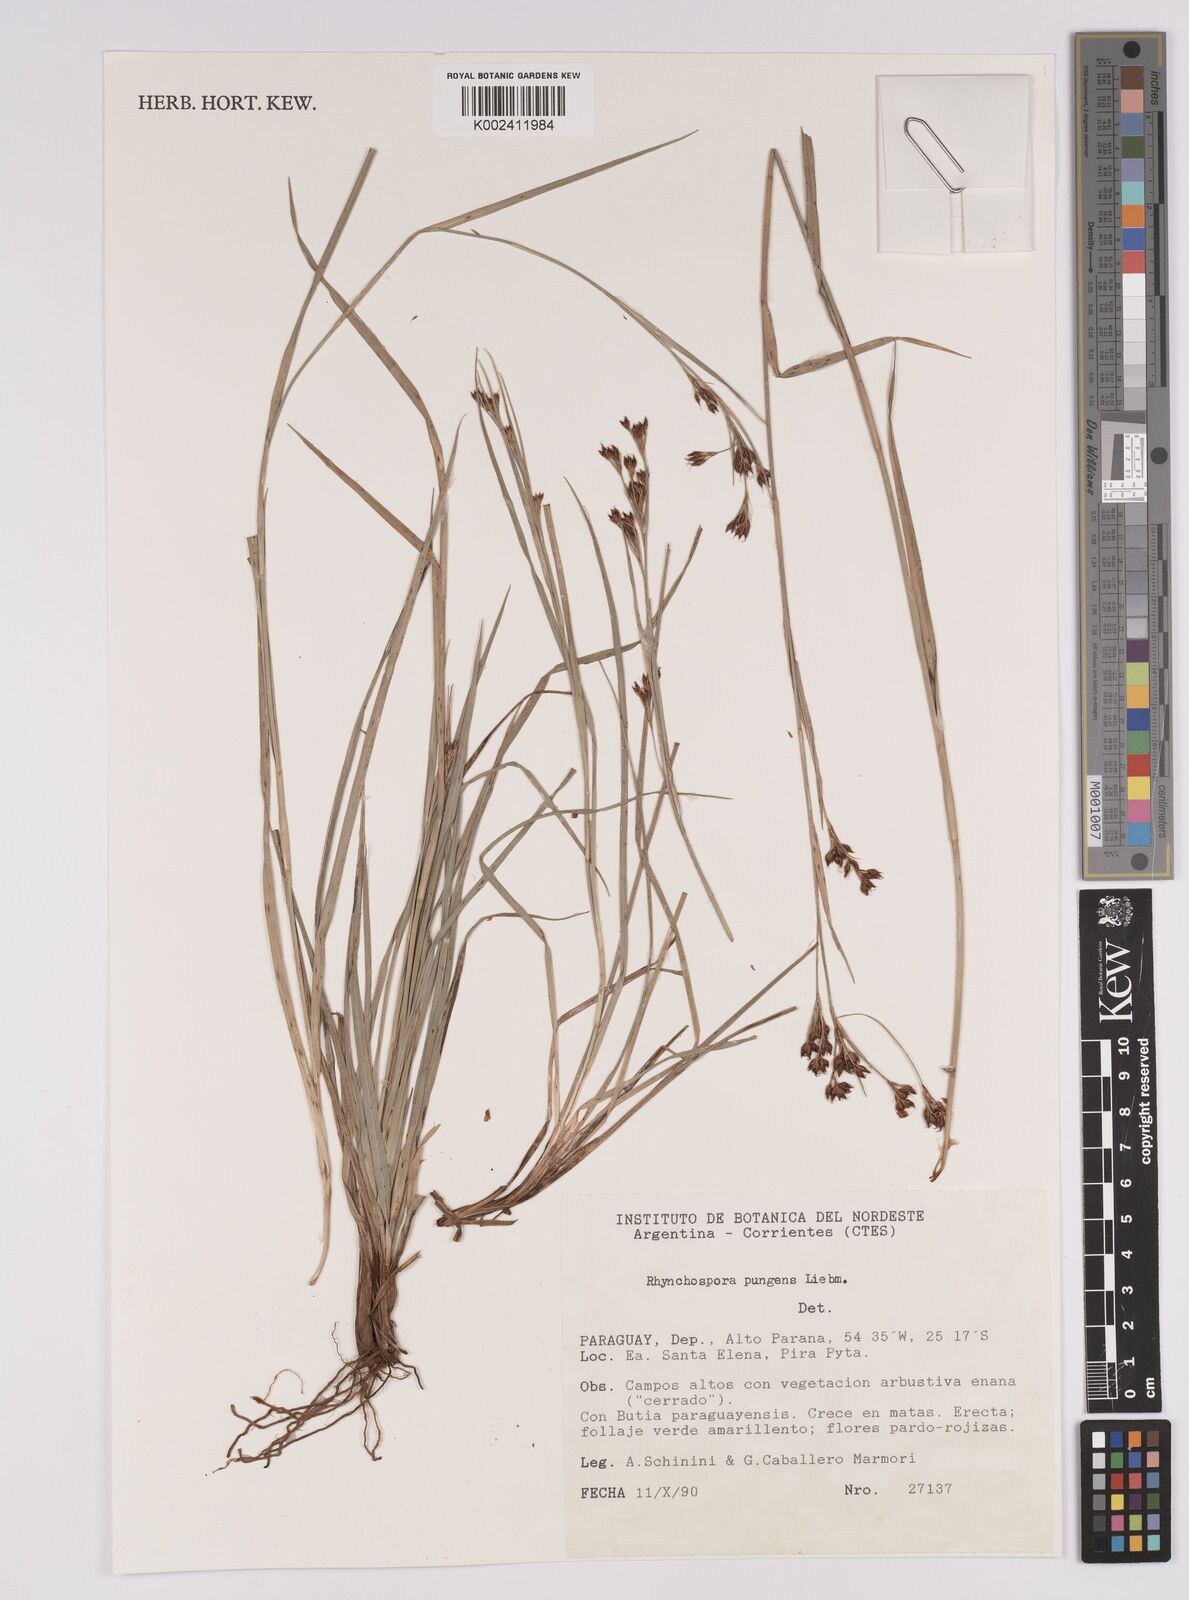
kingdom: Plantae
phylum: Tracheophyta
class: Liliopsida
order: Poales
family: Cyperaceae
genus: Rhynchospora
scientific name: Rhynchospora rugosa
